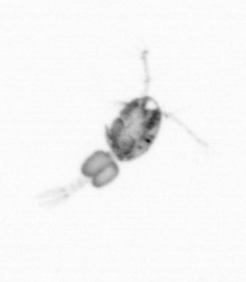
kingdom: Animalia
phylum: Arthropoda
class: Copepoda
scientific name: Copepoda
